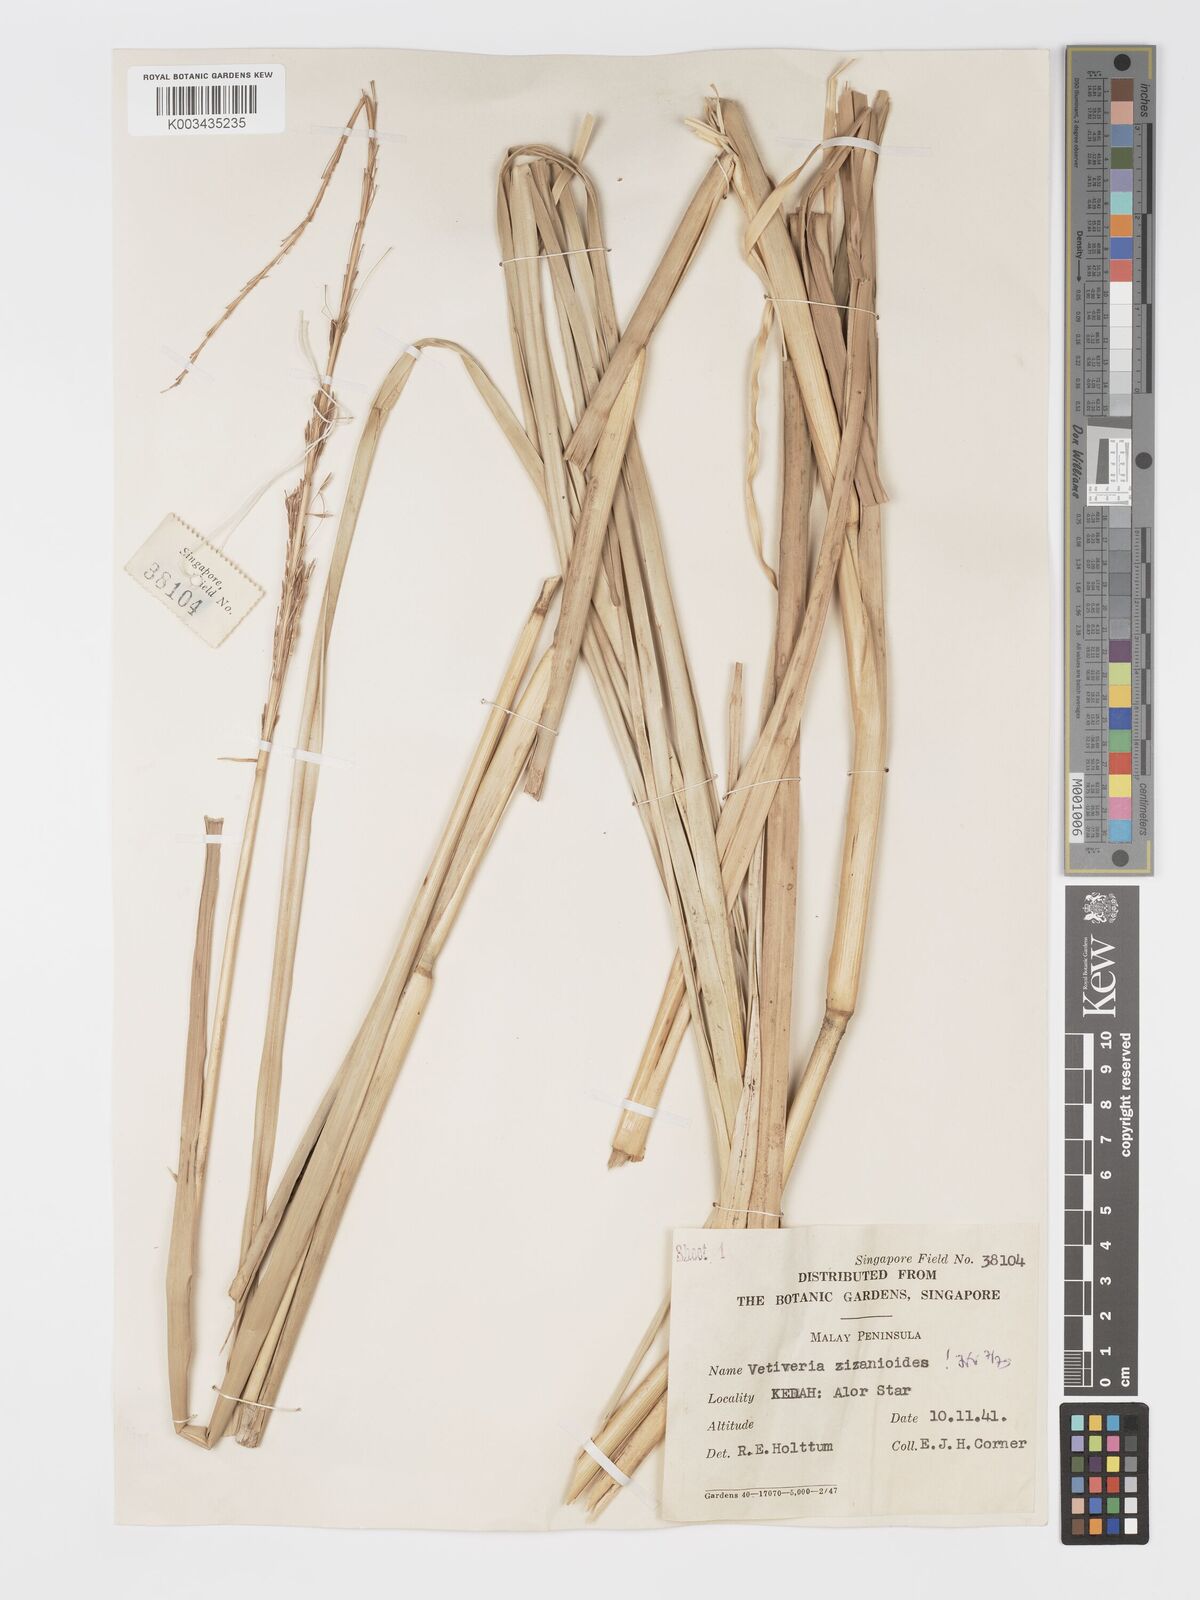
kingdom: Plantae
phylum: Tracheophyta
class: Liliopsida
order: Poales
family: Poaceae
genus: Chrysopogon
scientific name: Chrysopogon zizanioides
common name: False beardgrass
